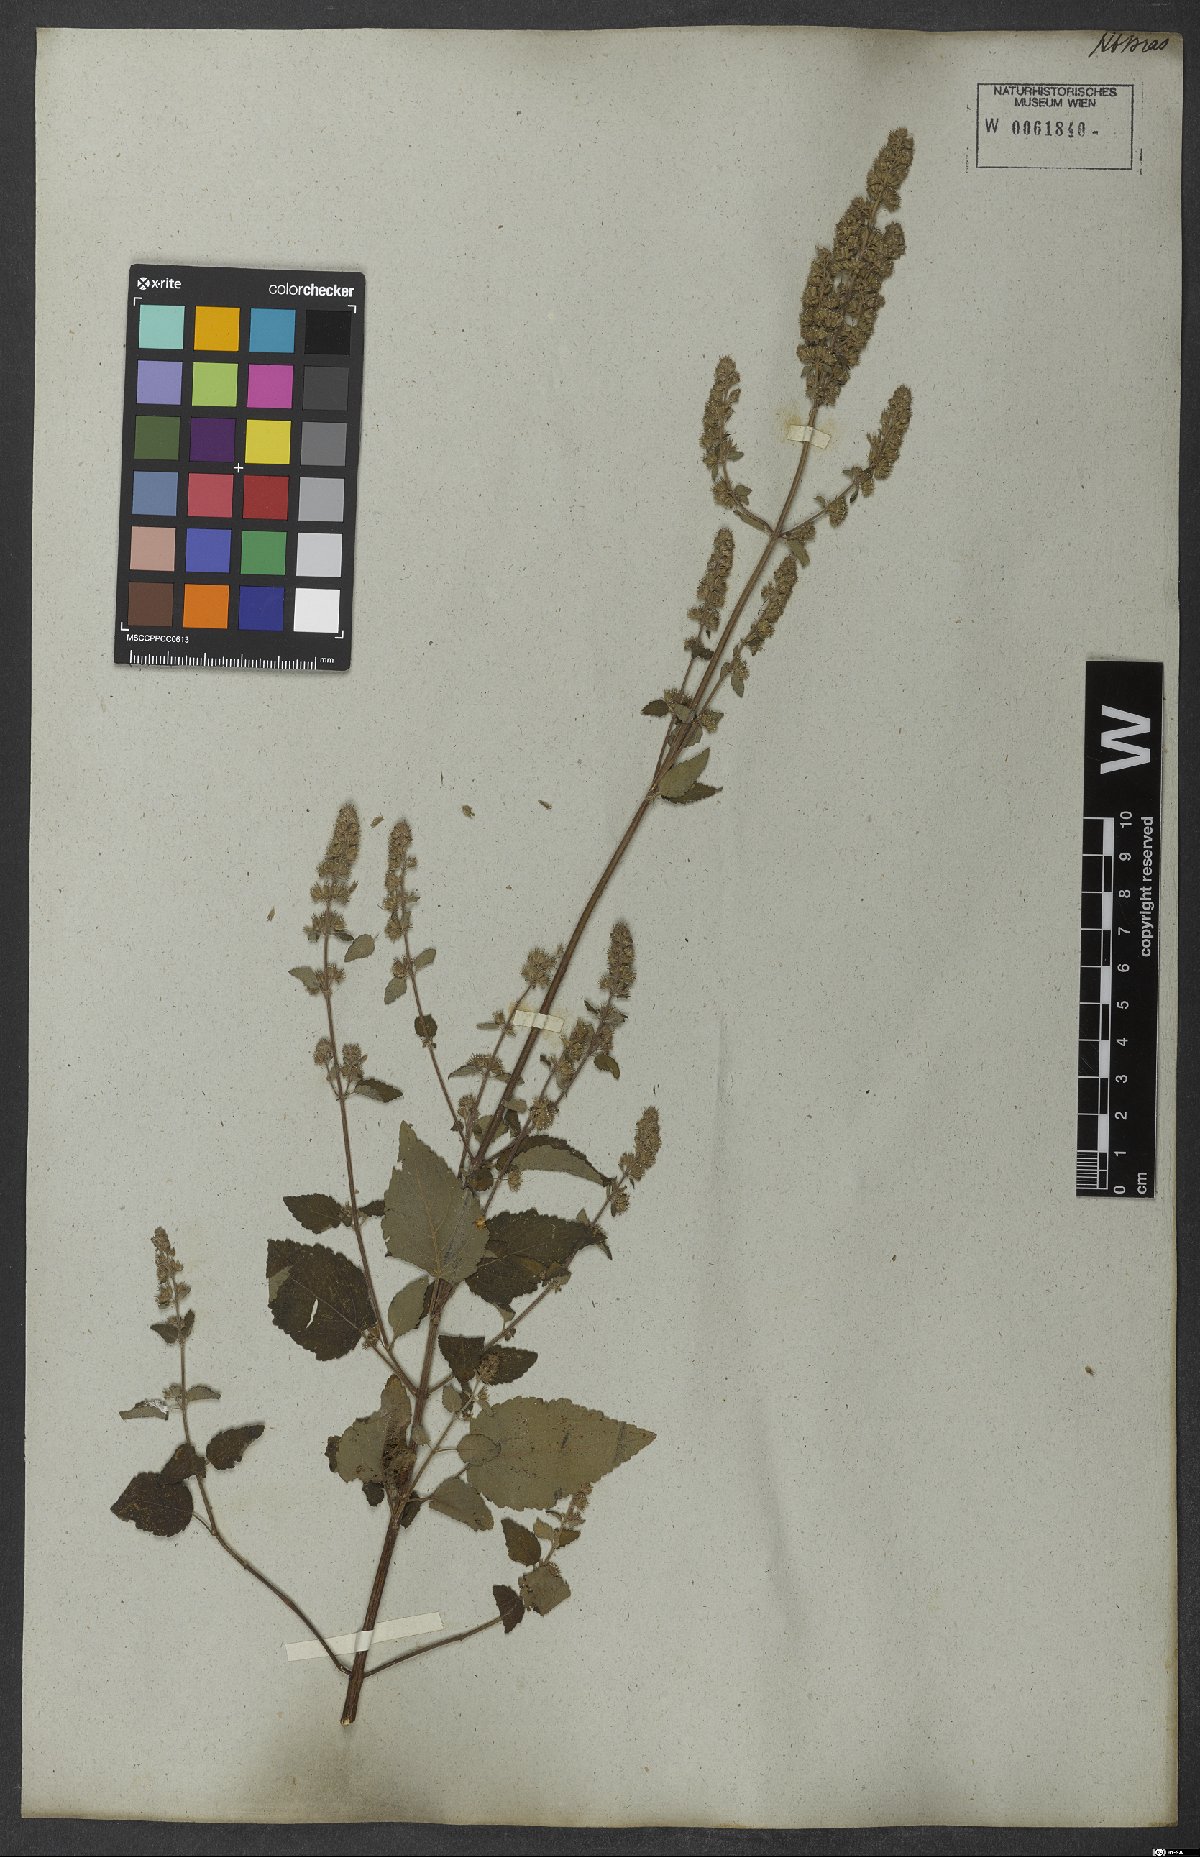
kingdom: Plantae
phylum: Tracheophyta
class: Magnoliopsida
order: Lamiales
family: Lamiaceae
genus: Mesosphaerum
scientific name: Mesosphaerum pectinatum
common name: Comb hyptis
